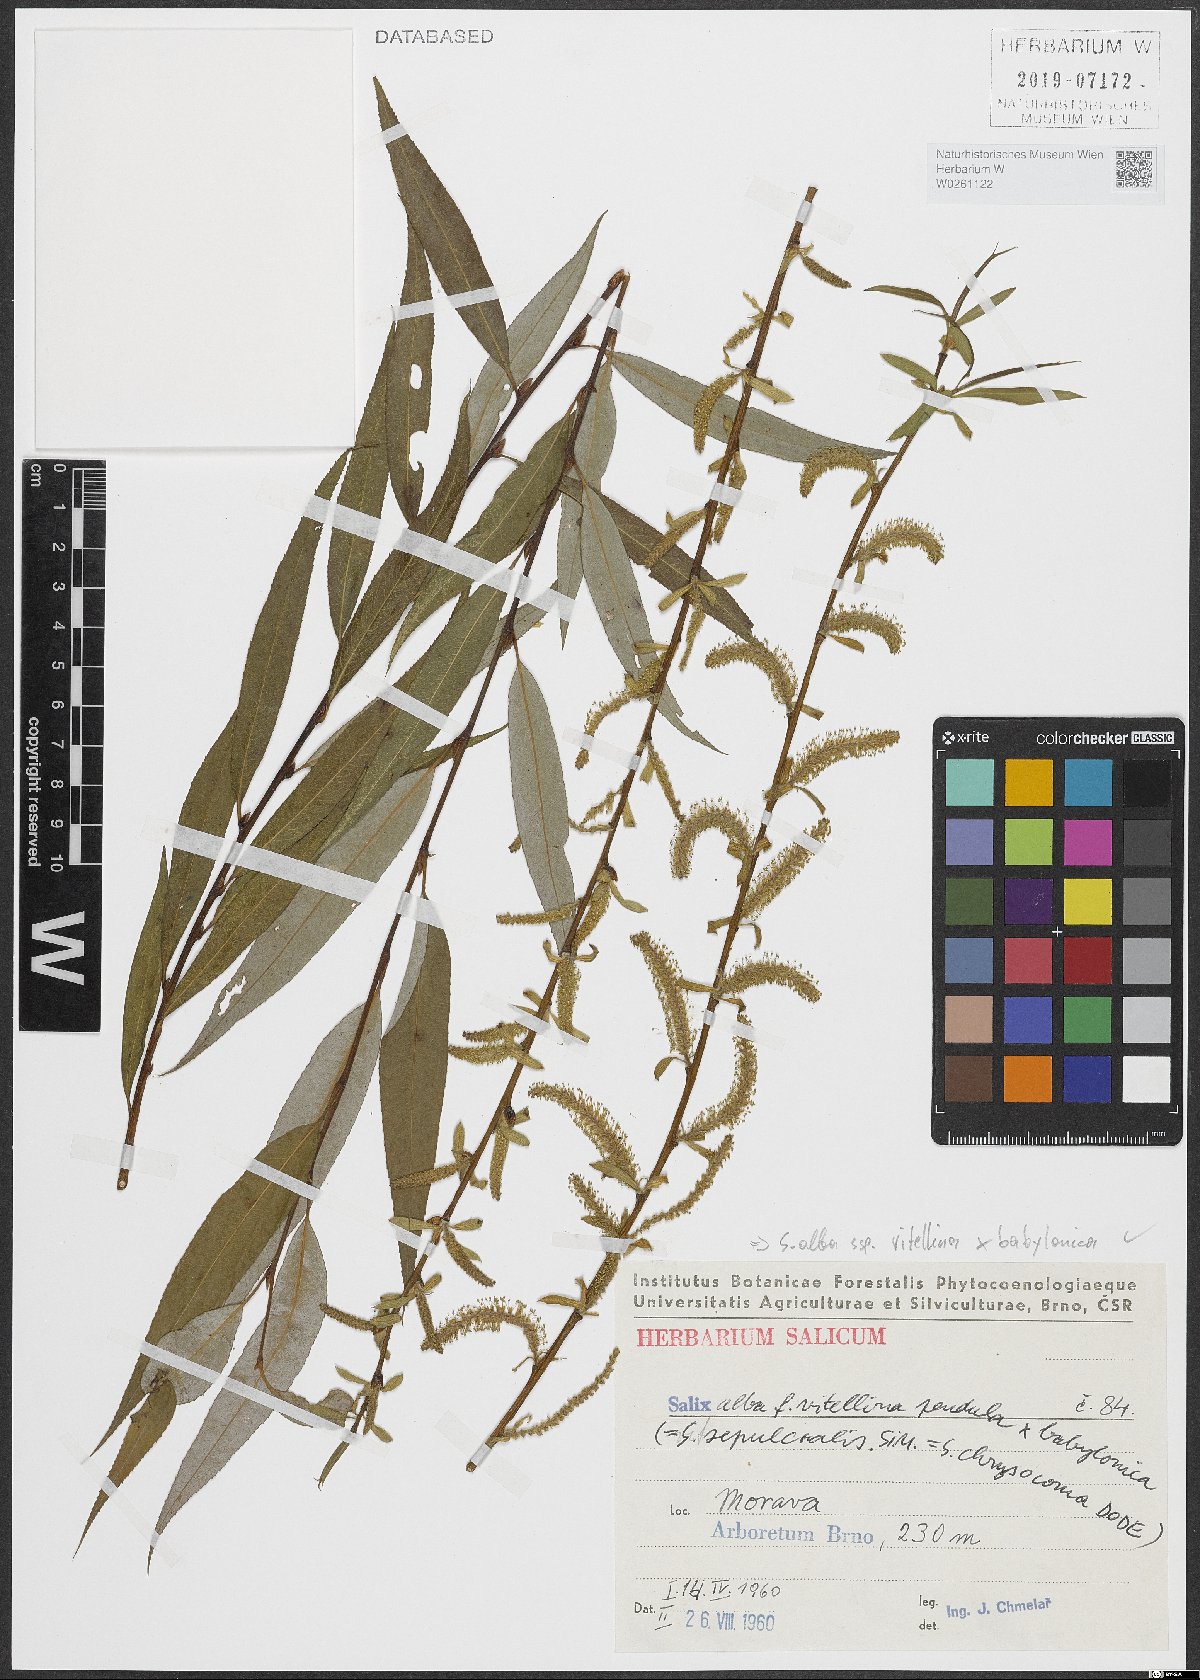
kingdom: Plantae
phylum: Tracheophyta
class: Magnoliopsida
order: Malpighiales
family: Salicaceae
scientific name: Salicaceae
